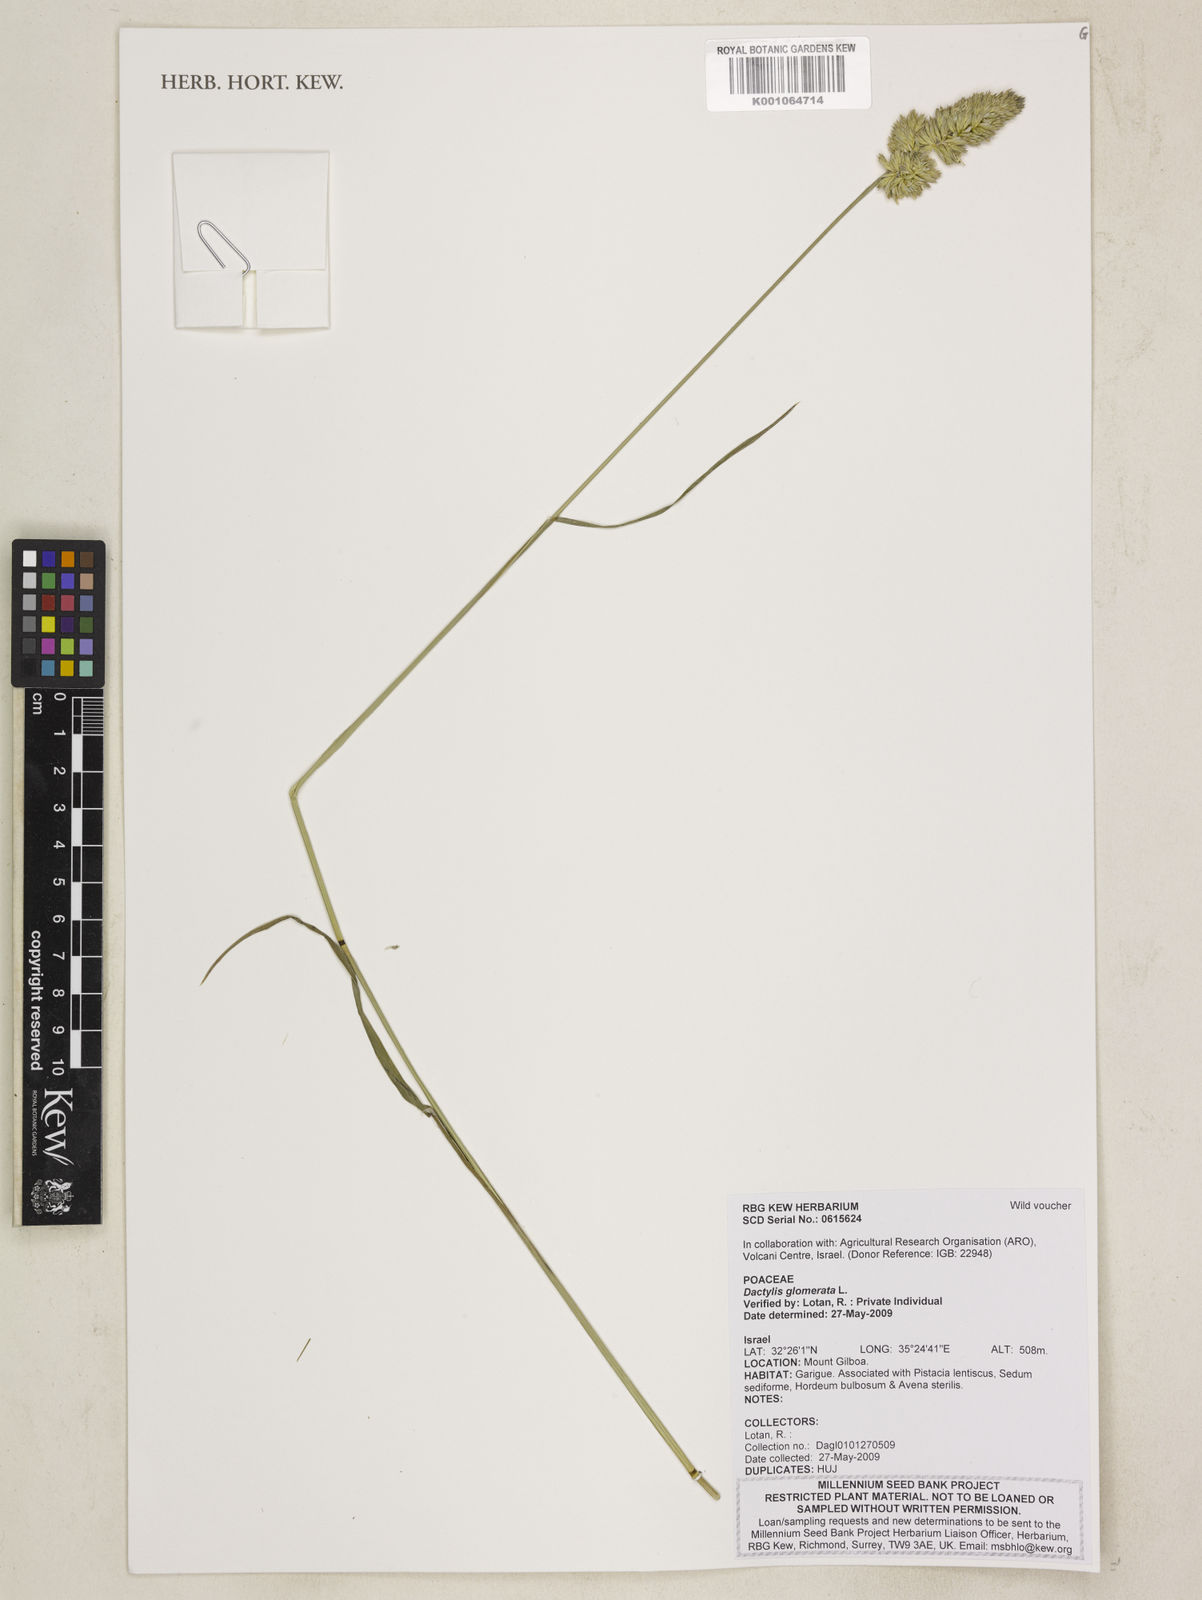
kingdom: Plantae
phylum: Tracheophyta
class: Liliopsida
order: Poales
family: Poaceae
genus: Dactylis
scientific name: Dactylis glomerata
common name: Orchardgrass
